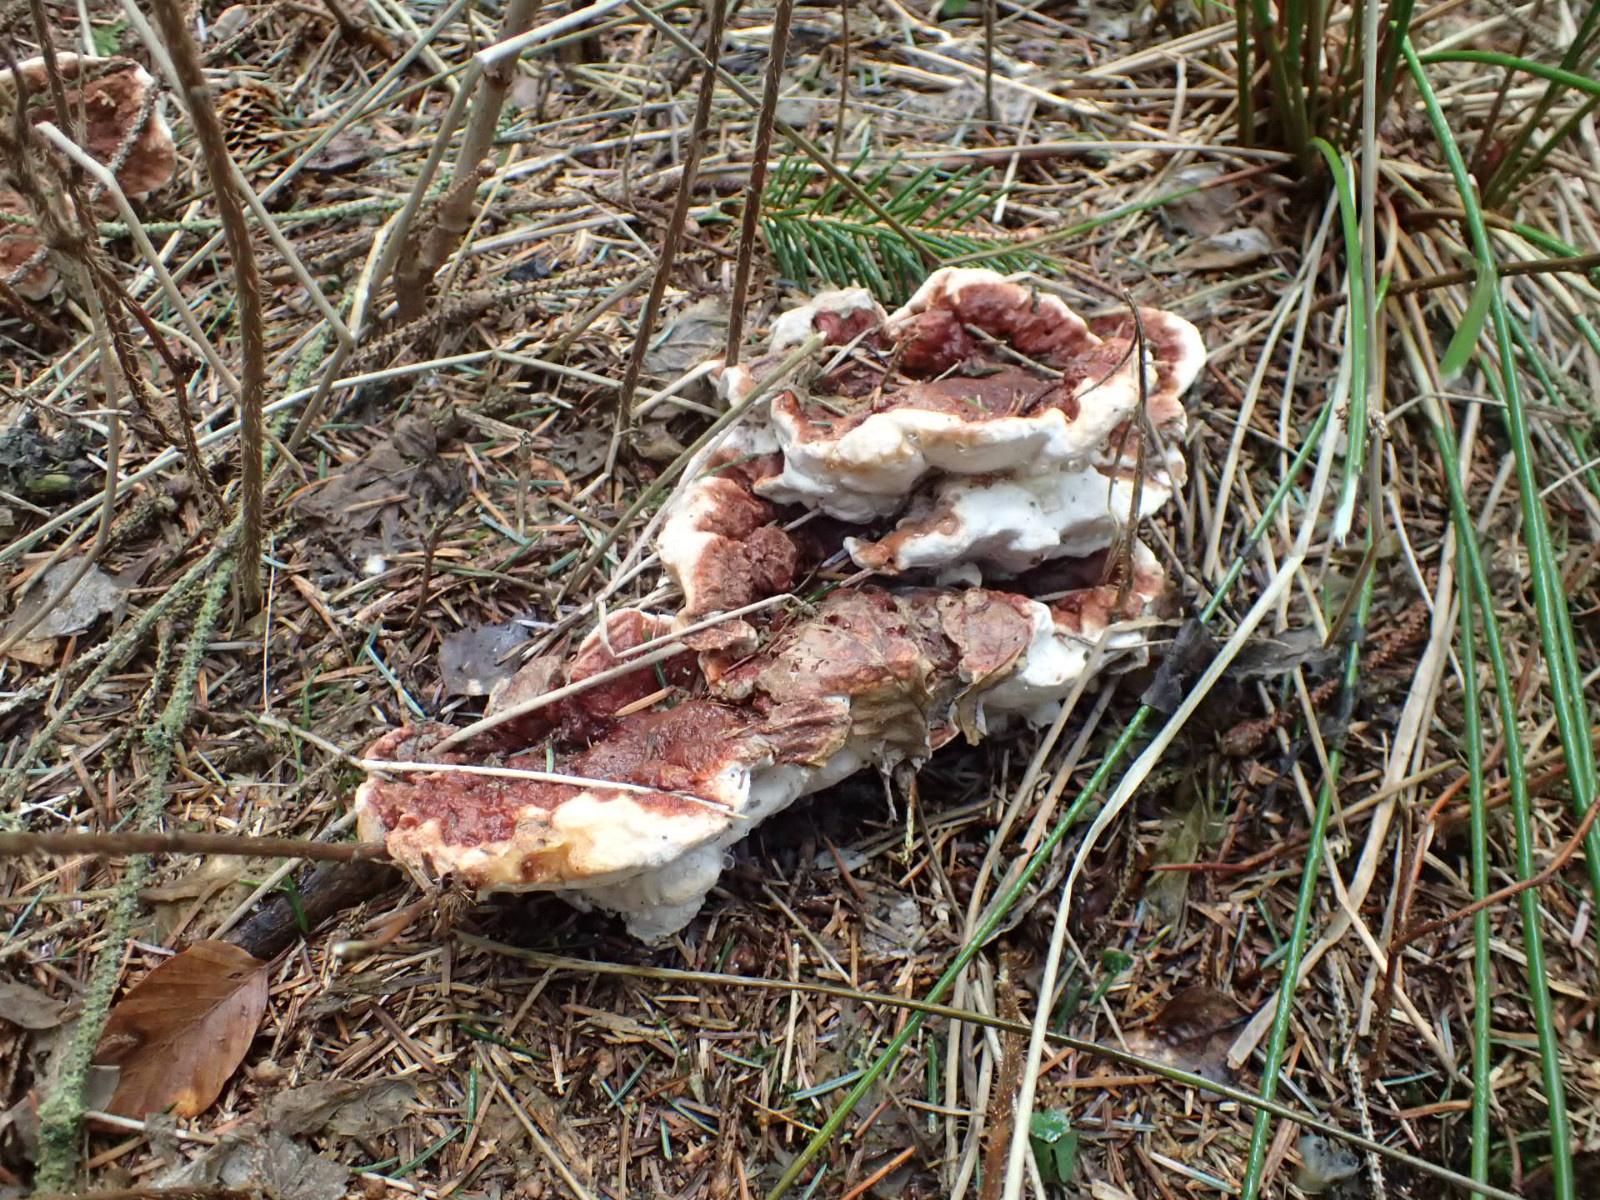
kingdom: Fungi
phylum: Basidiomycota
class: Agaricomycetes
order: Russulales
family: Bondarzewiaceae
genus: Heterobasidion
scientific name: Heterobasidion
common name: rodfordærver
